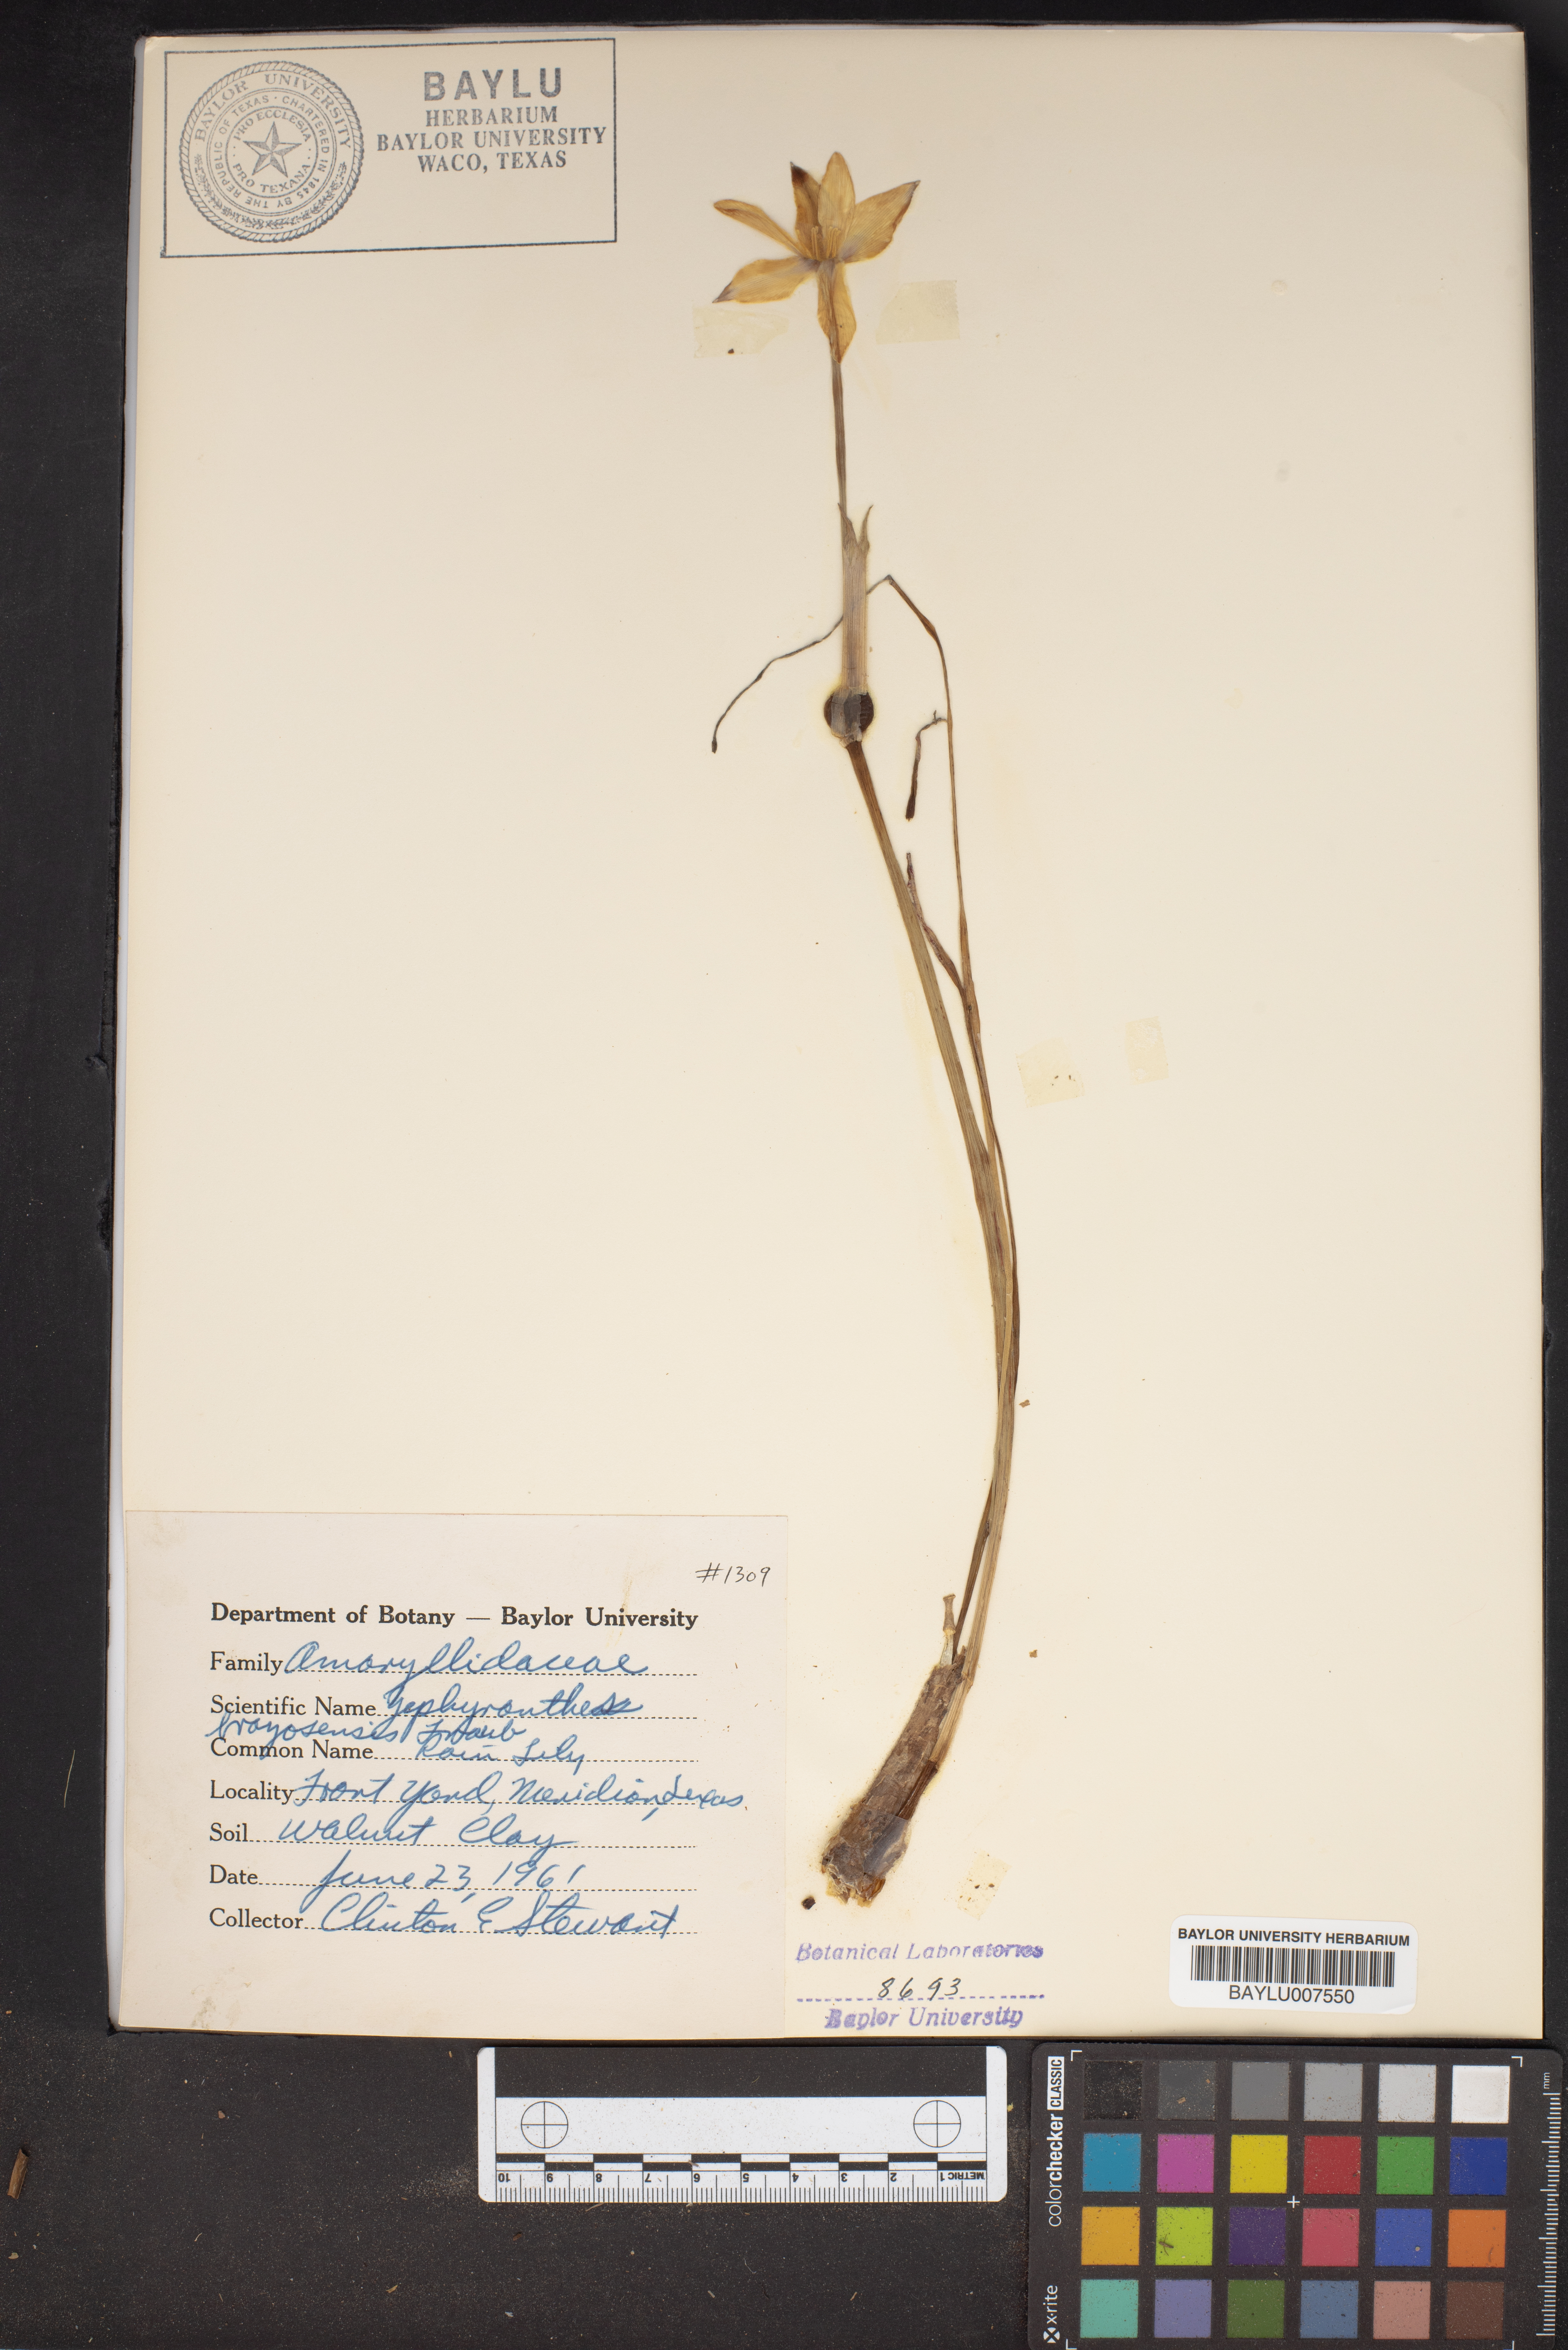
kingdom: Plantae
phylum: Tracheophyta
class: Liliopsida
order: Asparagales
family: Amaryllidaceae
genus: Zephyranthes
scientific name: Zephyranthes
